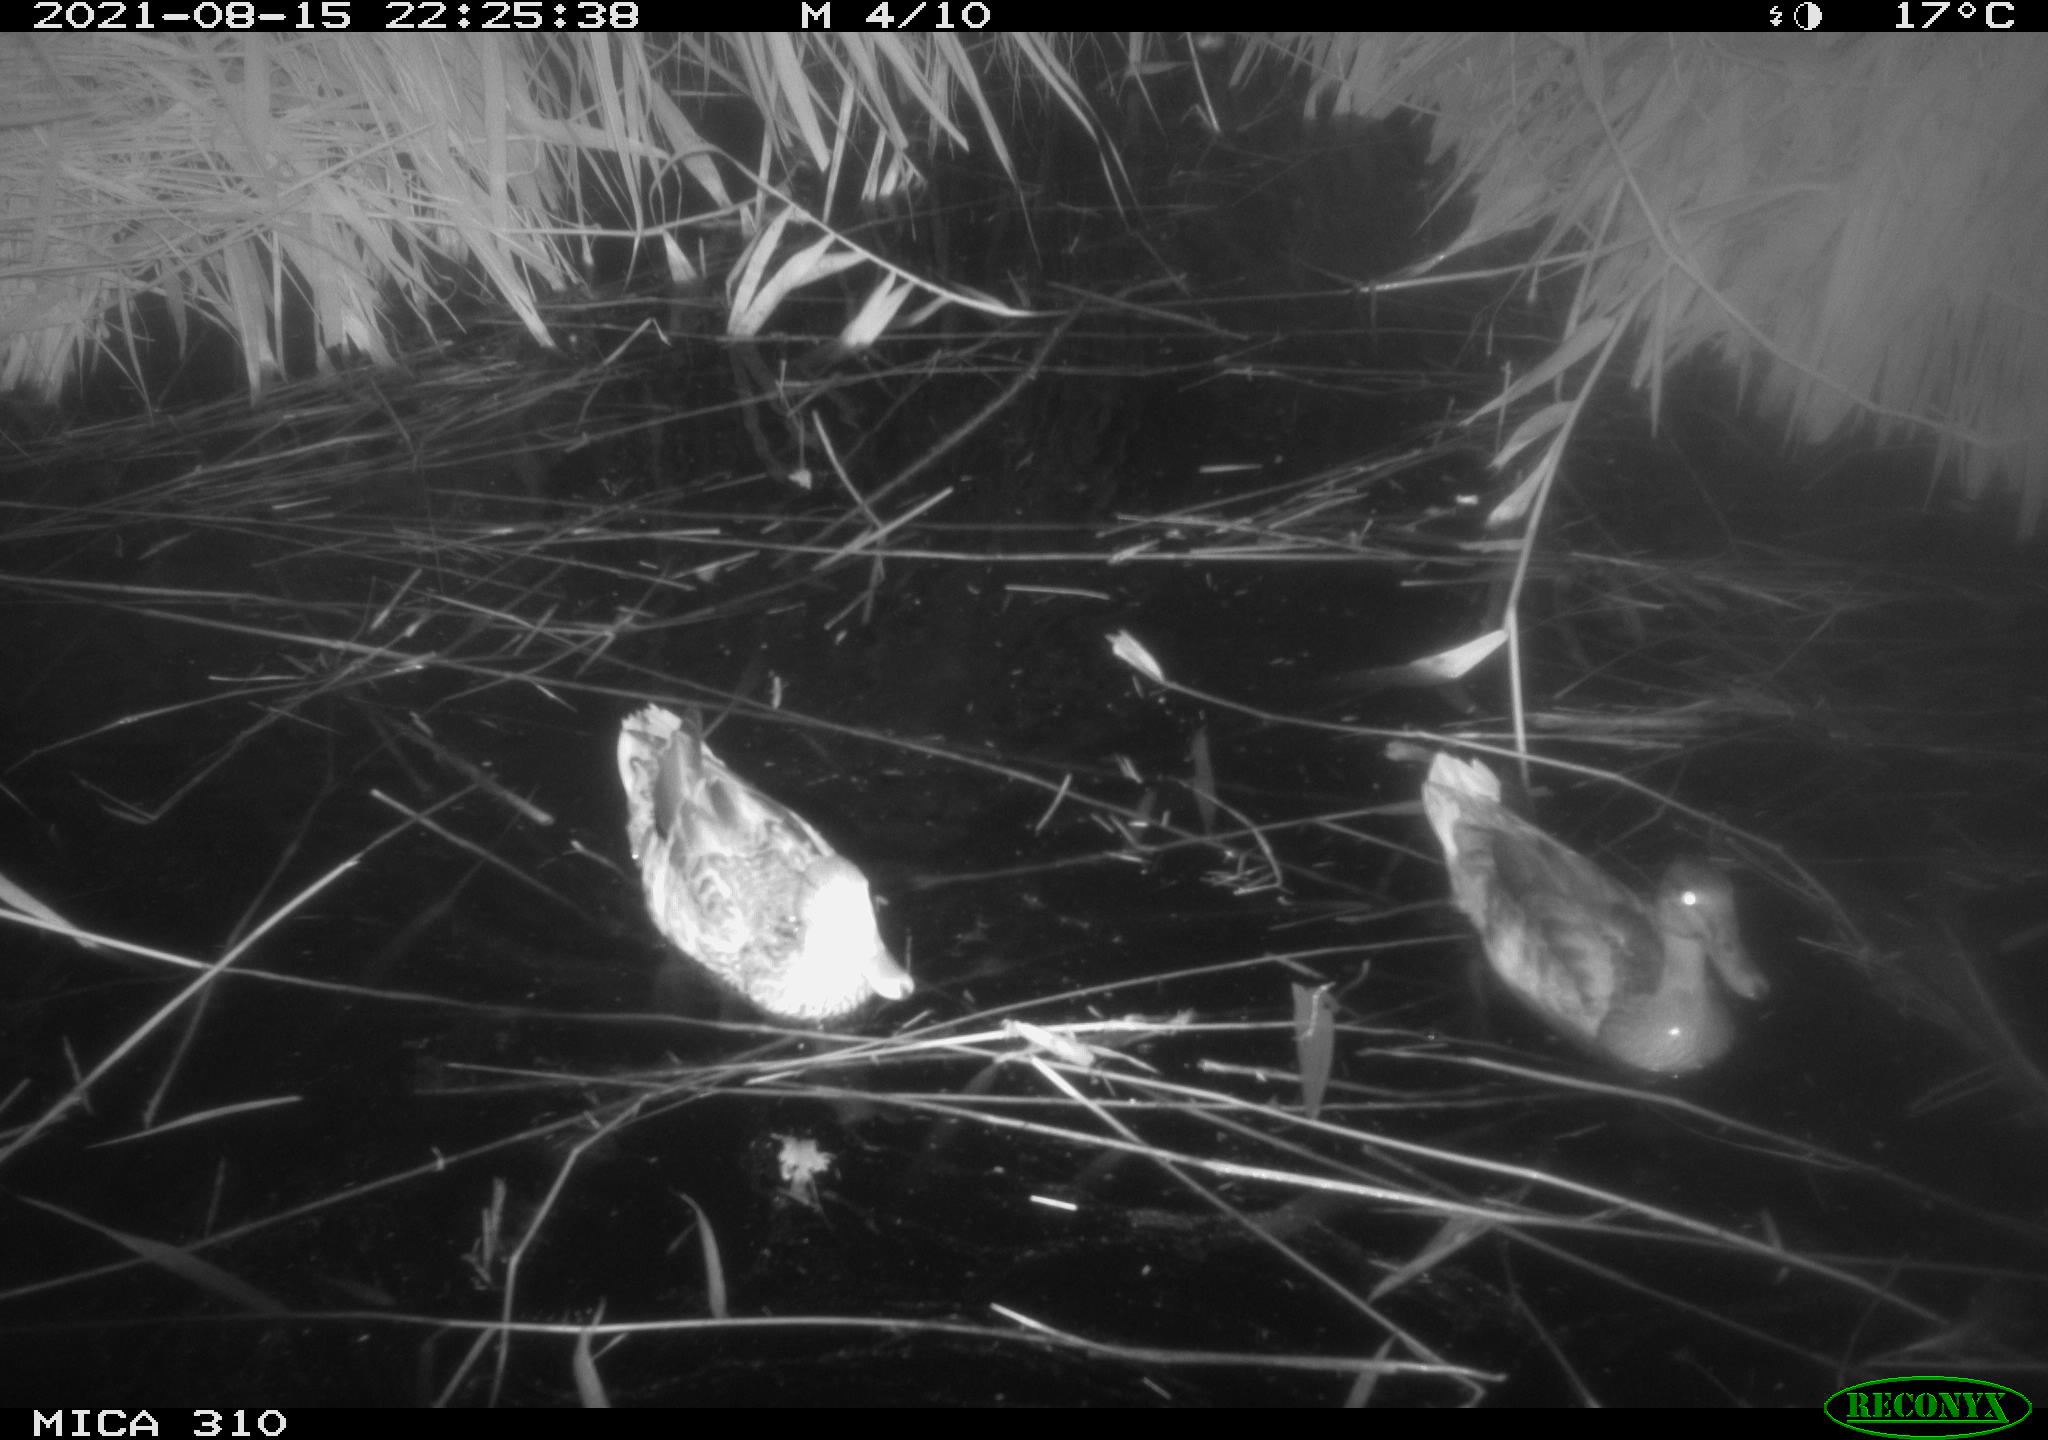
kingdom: Animalia
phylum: Chordata
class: Aves
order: Anseriformes
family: Anatidae
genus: Anas
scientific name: Anas platyrhynchos
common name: Mallard
